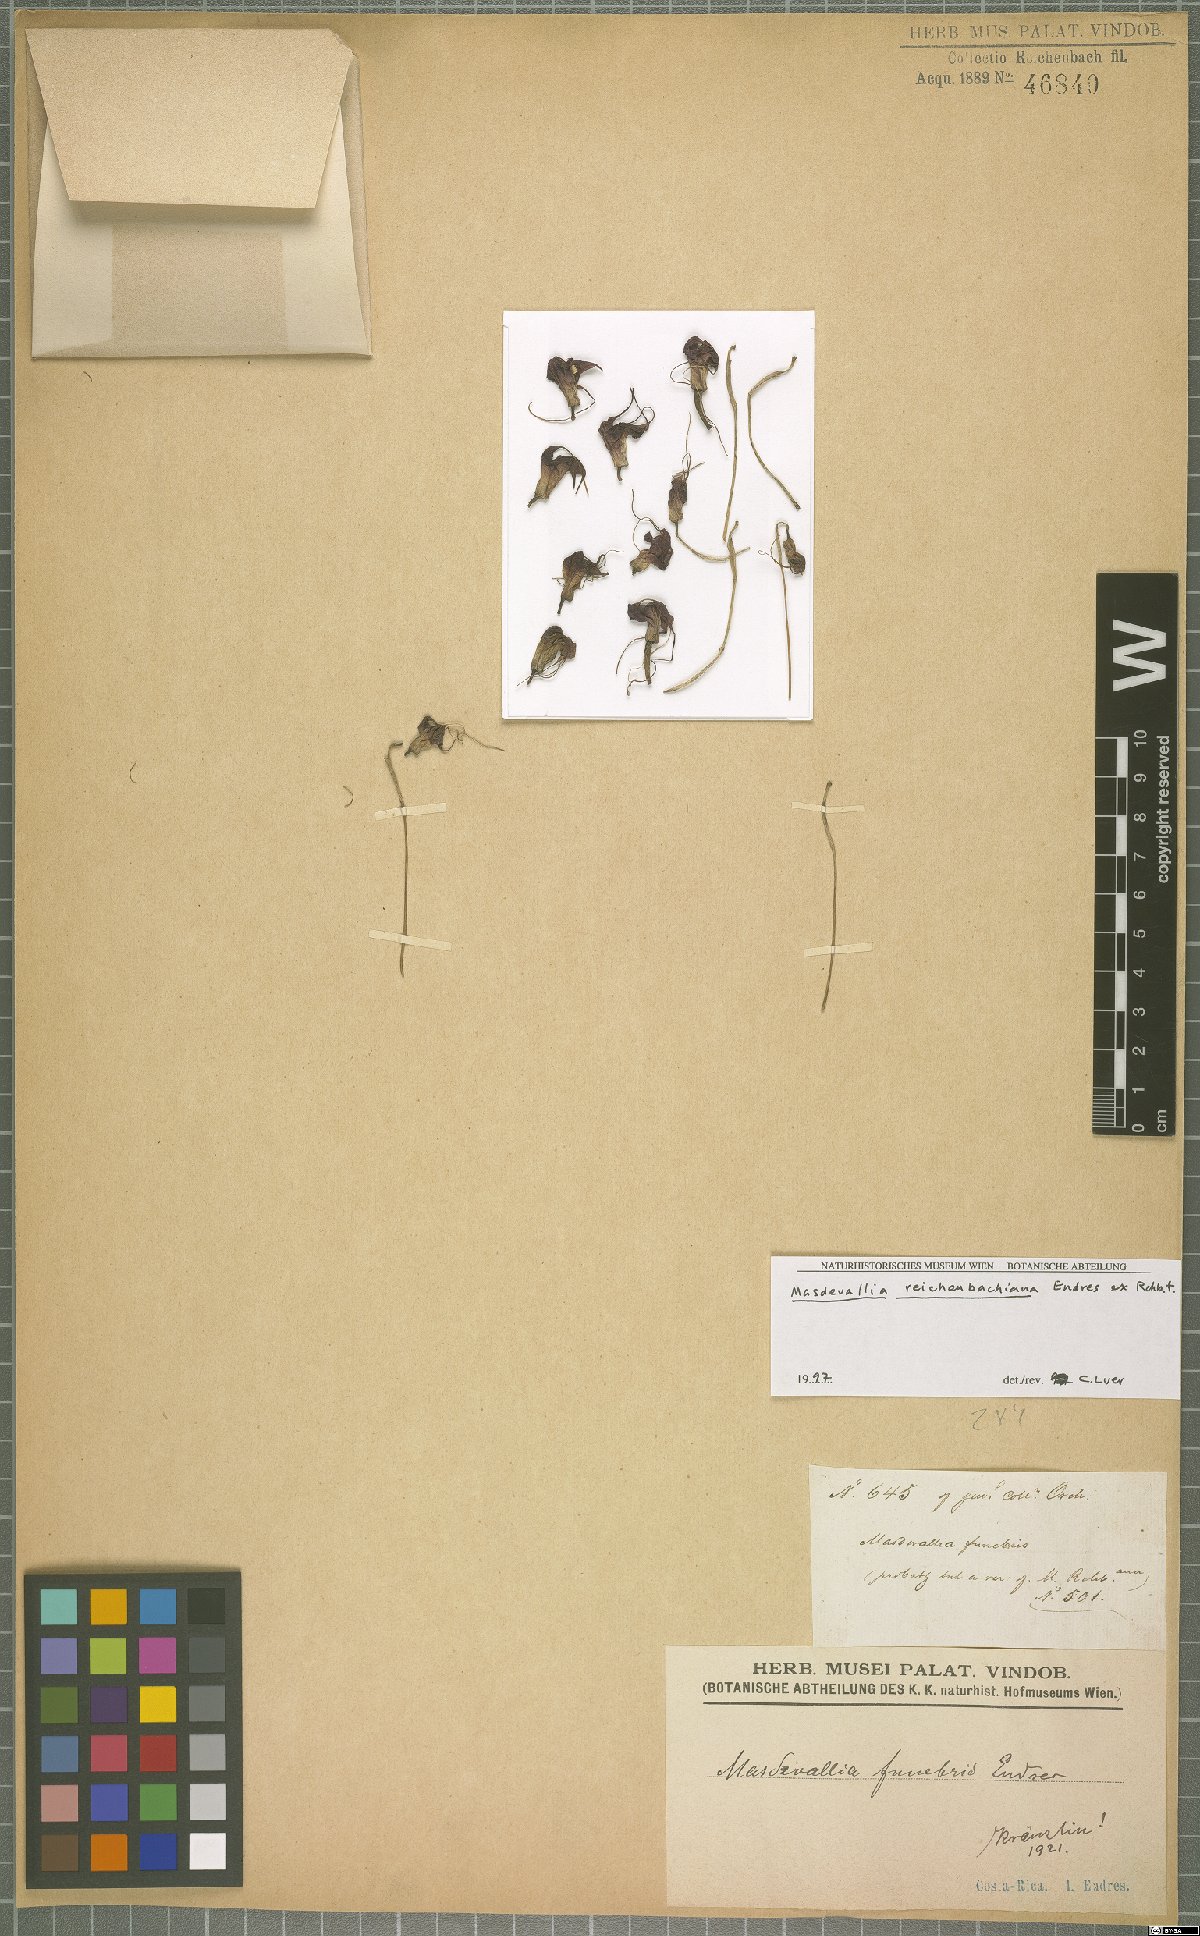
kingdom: Plantae
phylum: Tracheophyta
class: Liliopsida
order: Asparagales
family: Orchidaceae
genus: Masdevallia
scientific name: Masdevallia reichenbachiana
